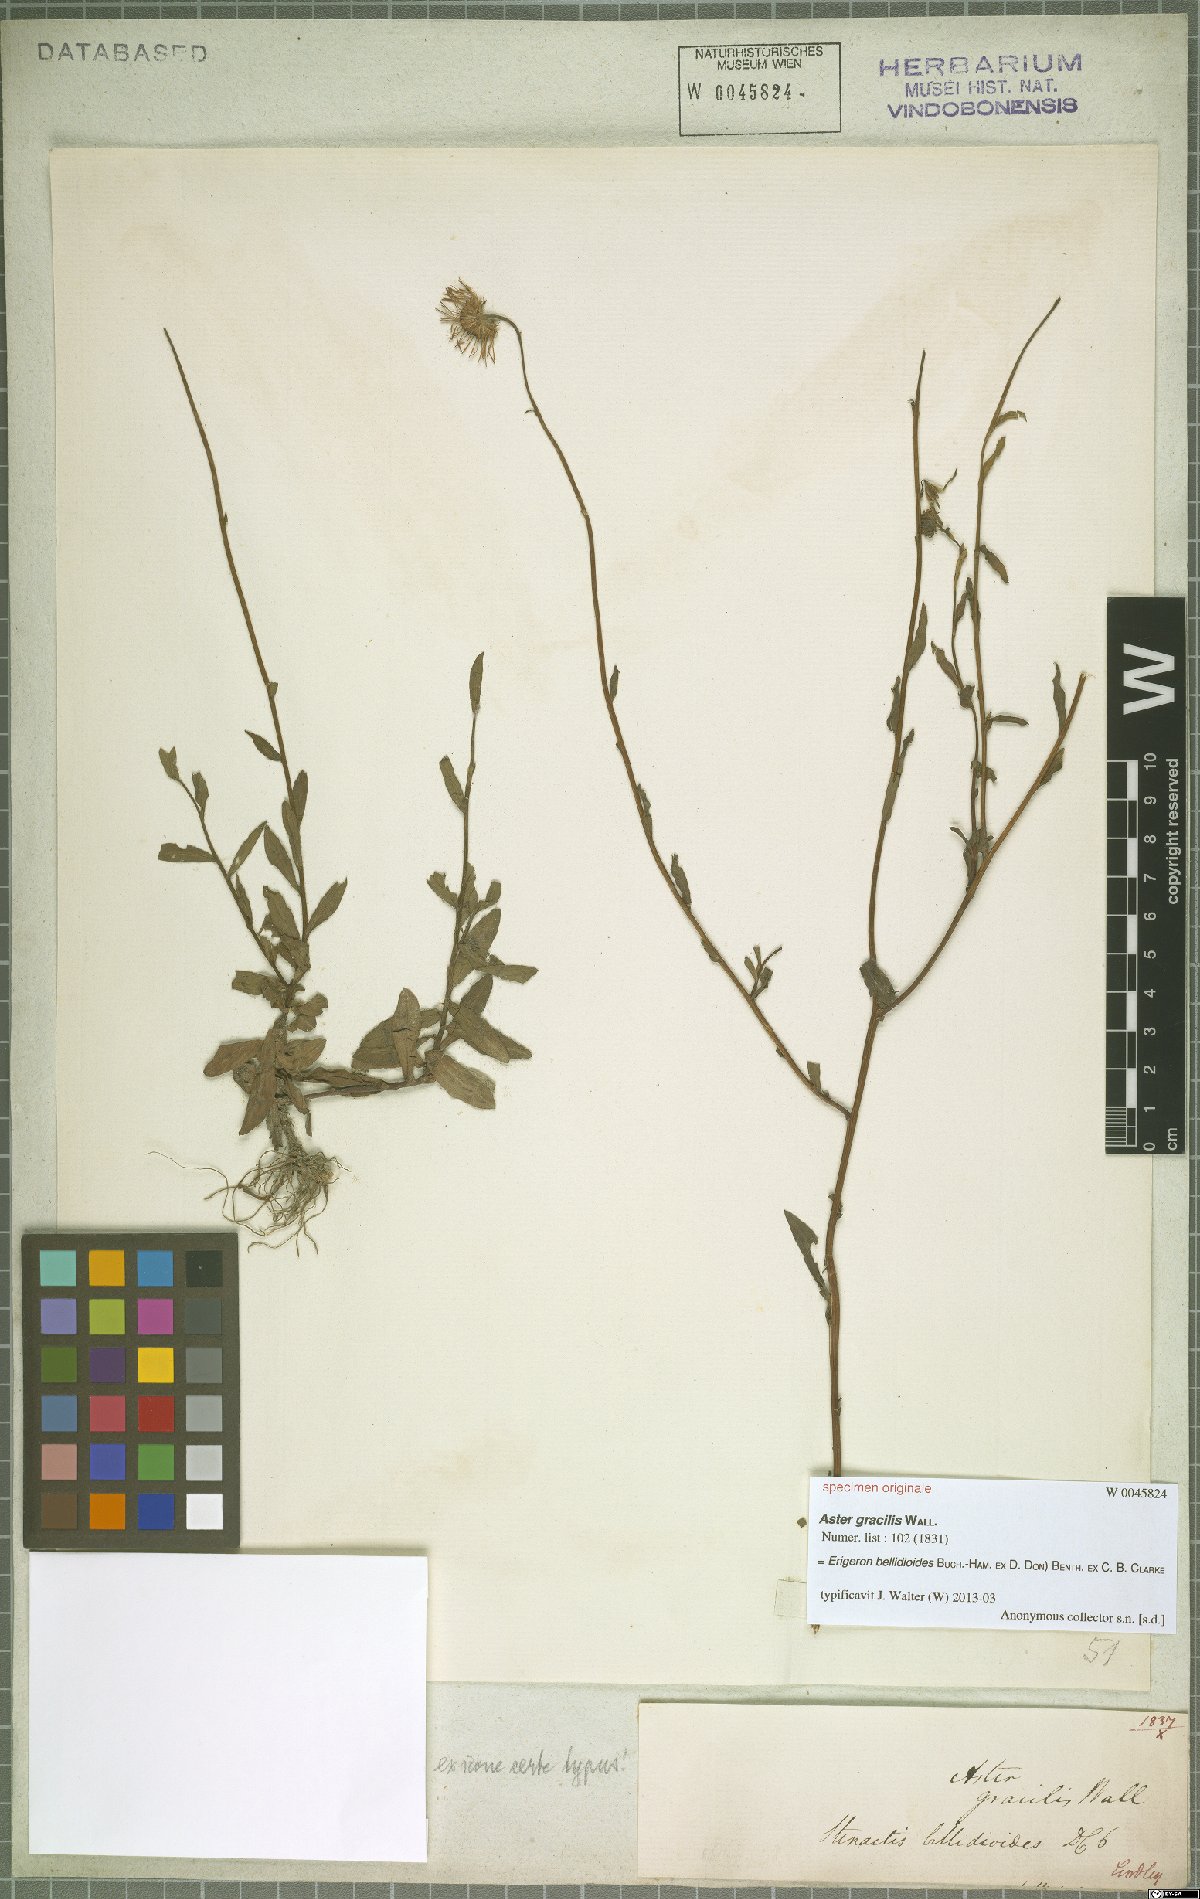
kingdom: Plantae
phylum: Tracheophyta
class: Magnoliopsida
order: Asterales
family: Asteraceae
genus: Erigeron
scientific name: Erigeron emodi
